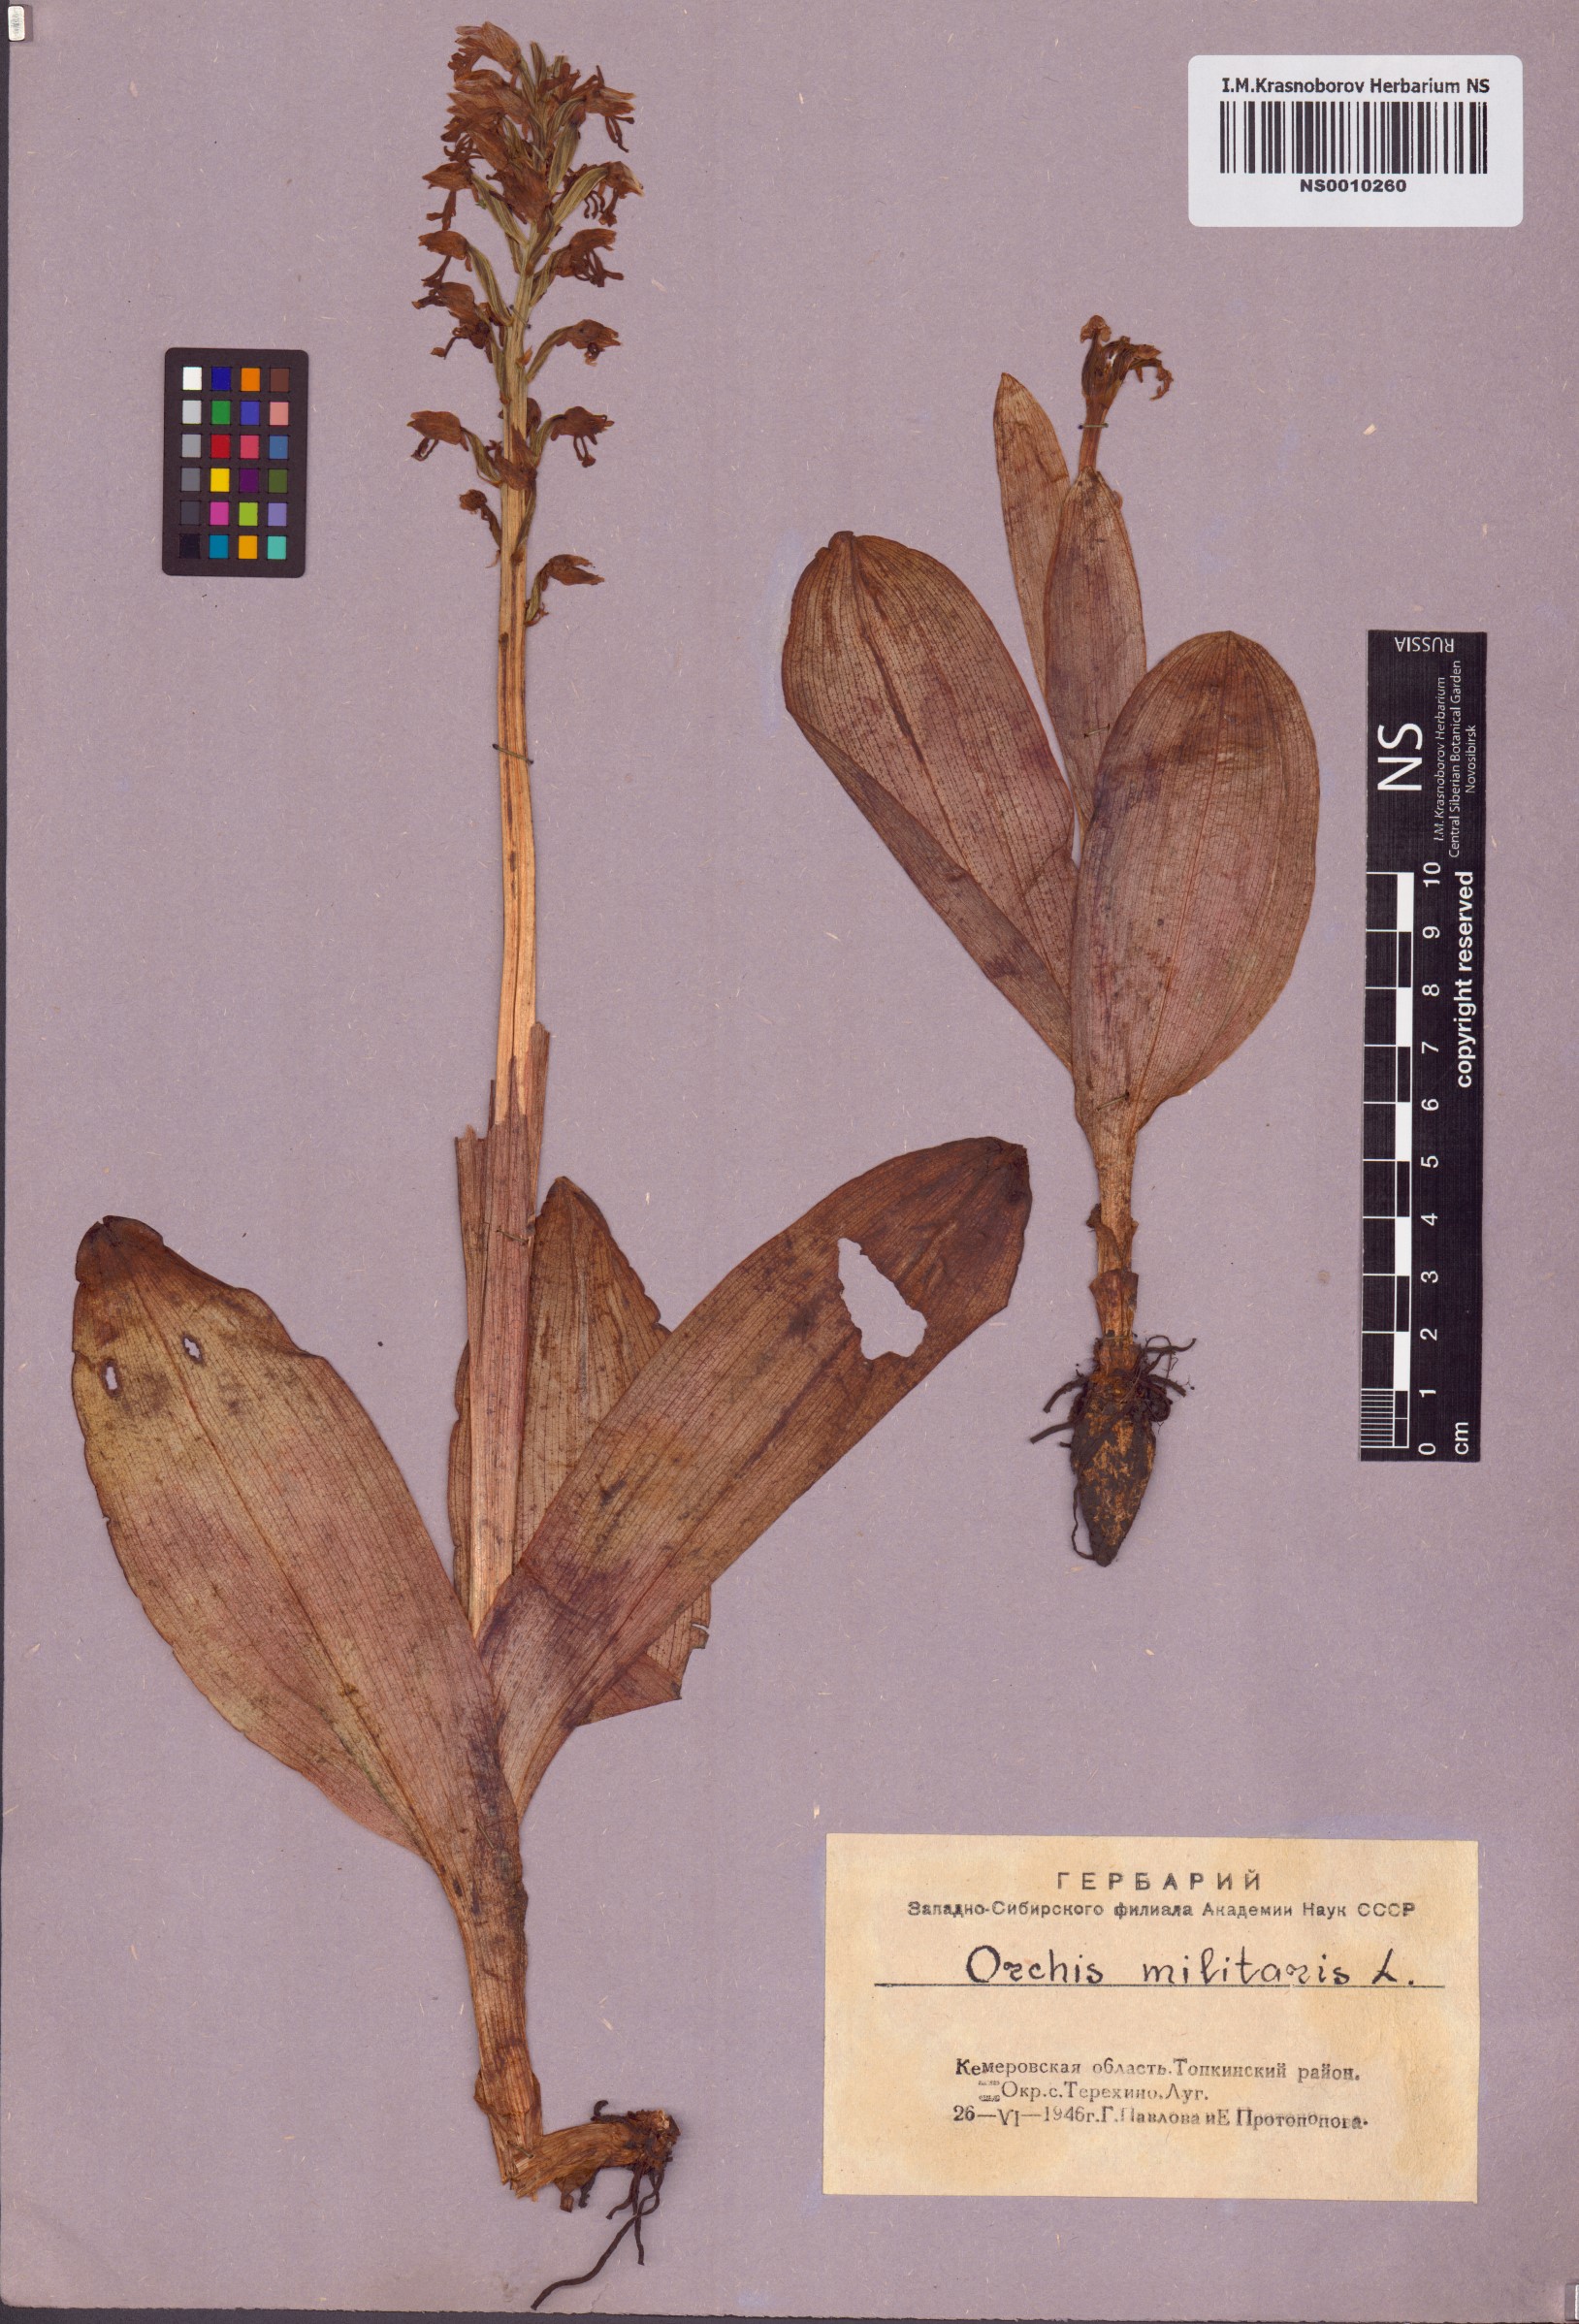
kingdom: Plantae
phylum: Tracheophyta
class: Liliopsida
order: Asparagales
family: Orchidaceae
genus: Orchis
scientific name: Orchis militaris
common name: Military orchid
